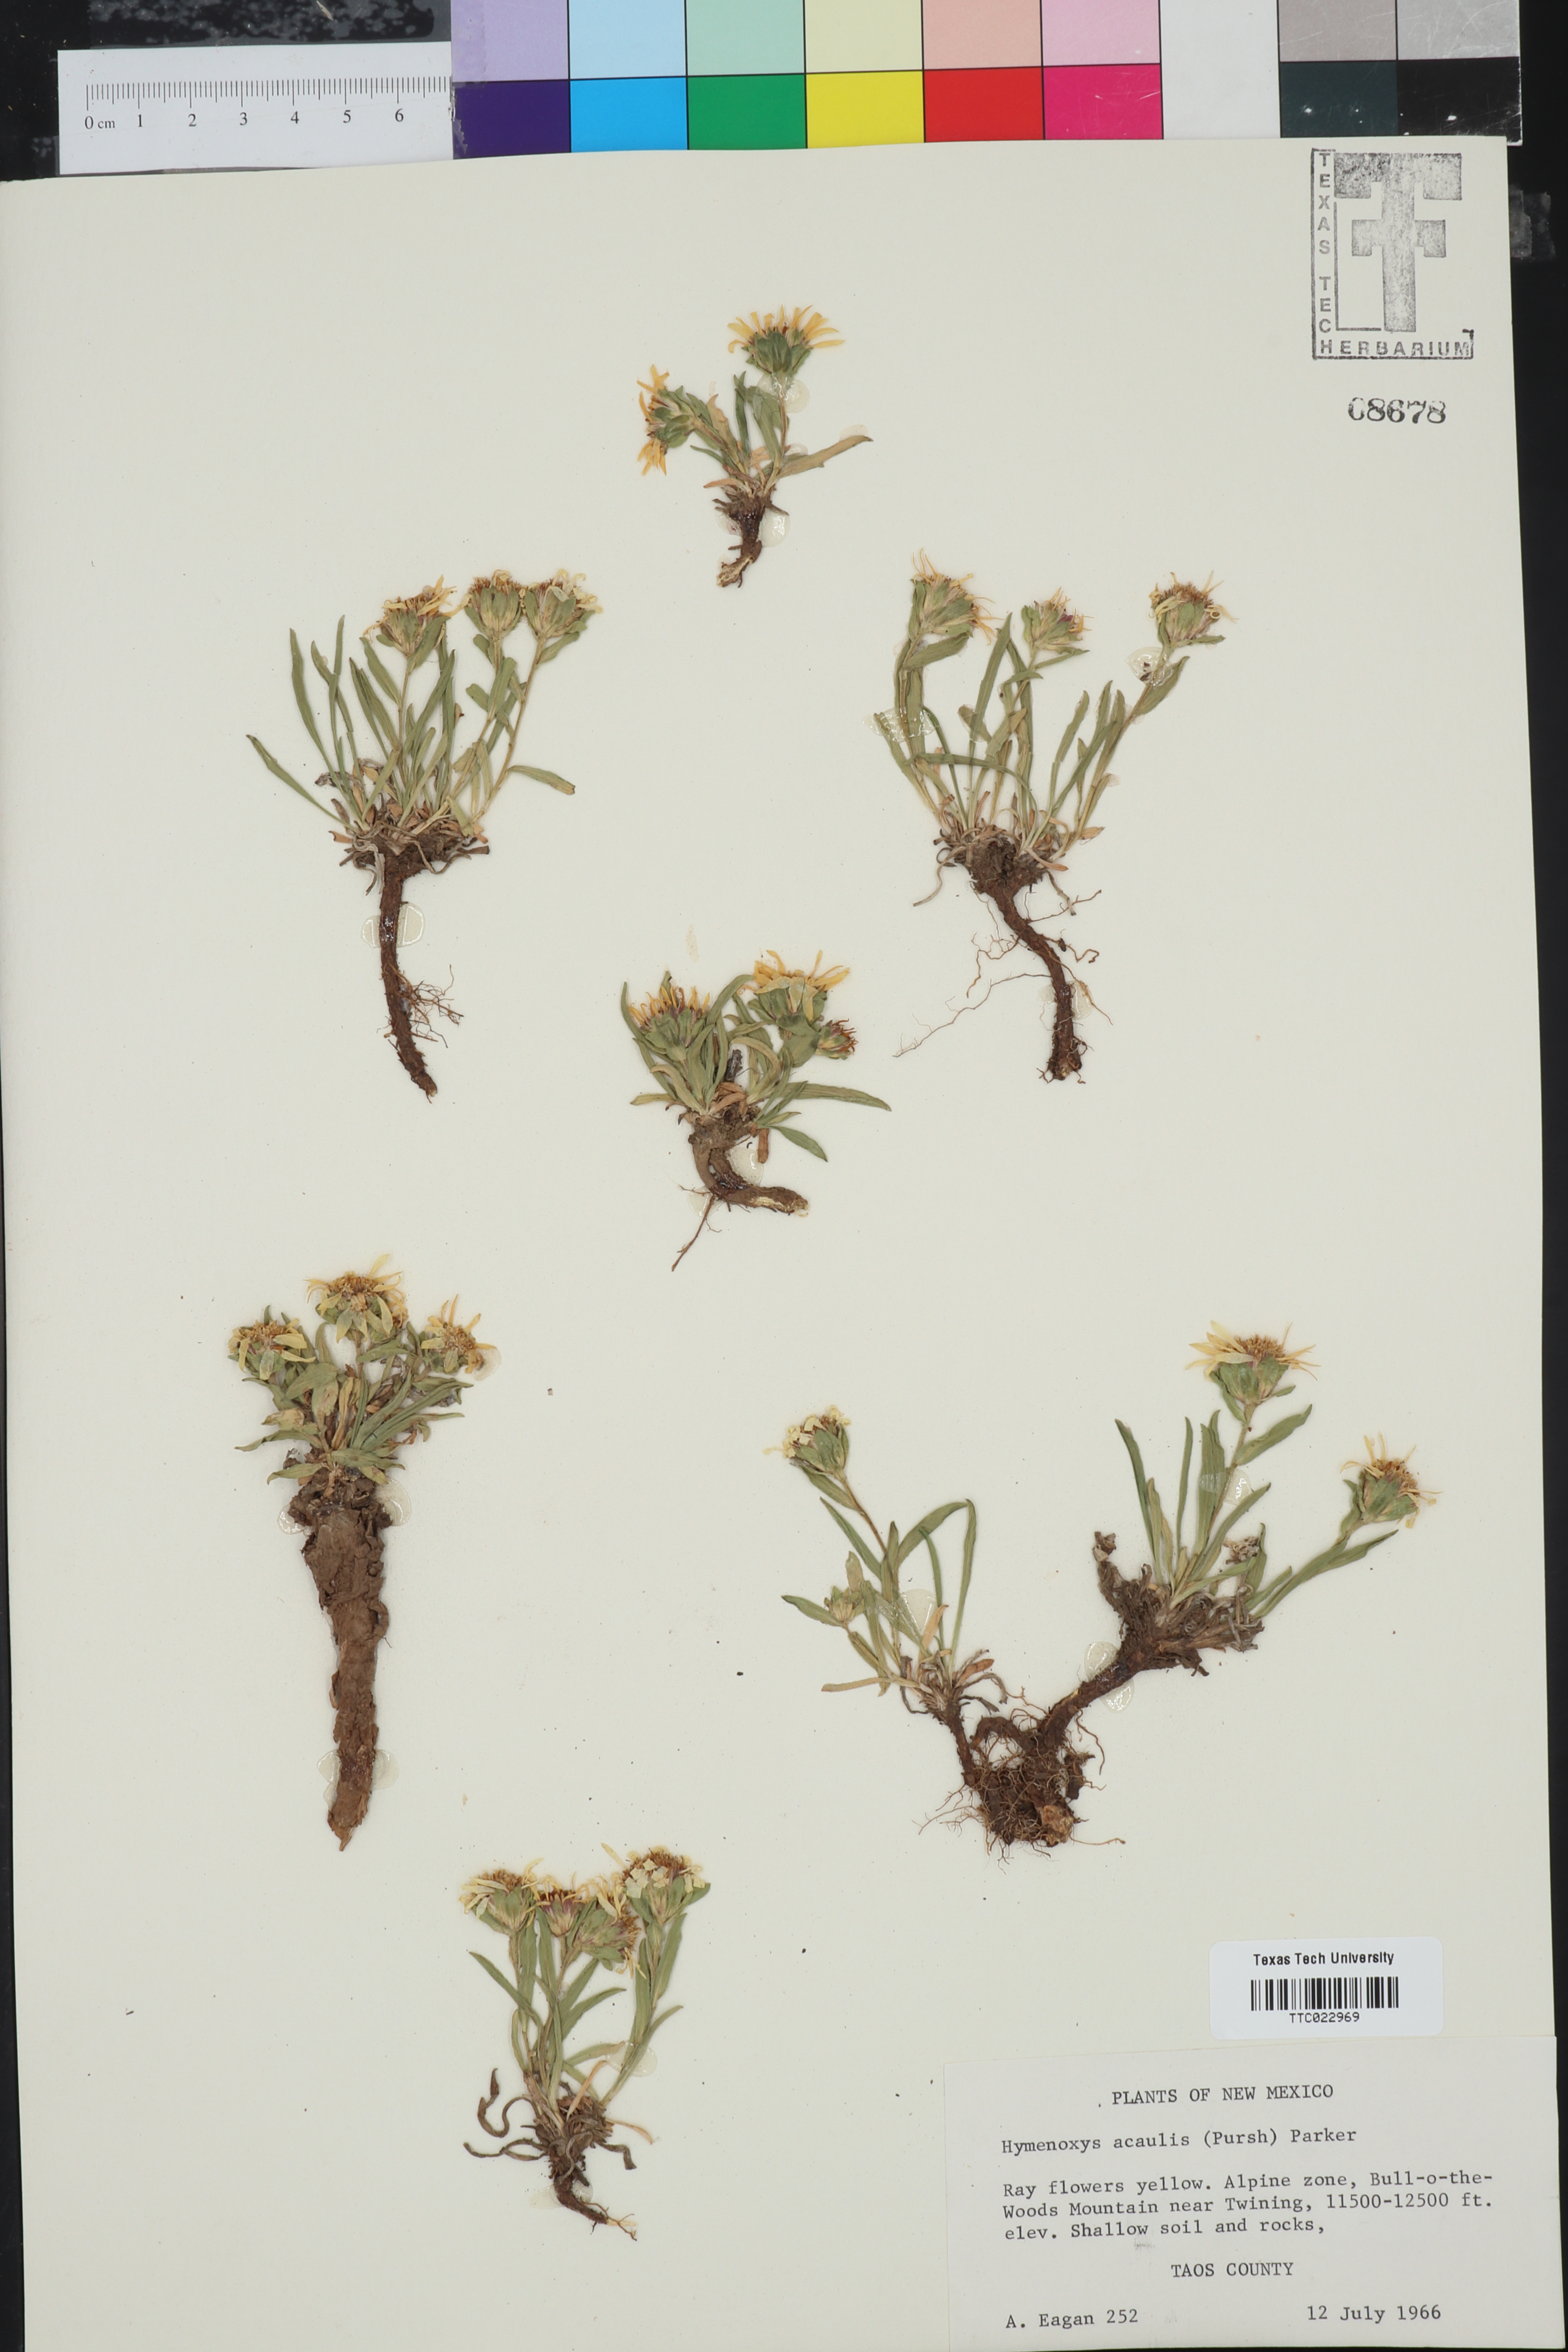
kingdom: Plantae
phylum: Tracheophyta
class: Magnoliopsida
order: Asterales
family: Asteraceae
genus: Hymenoxys
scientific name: Hymenoxys
